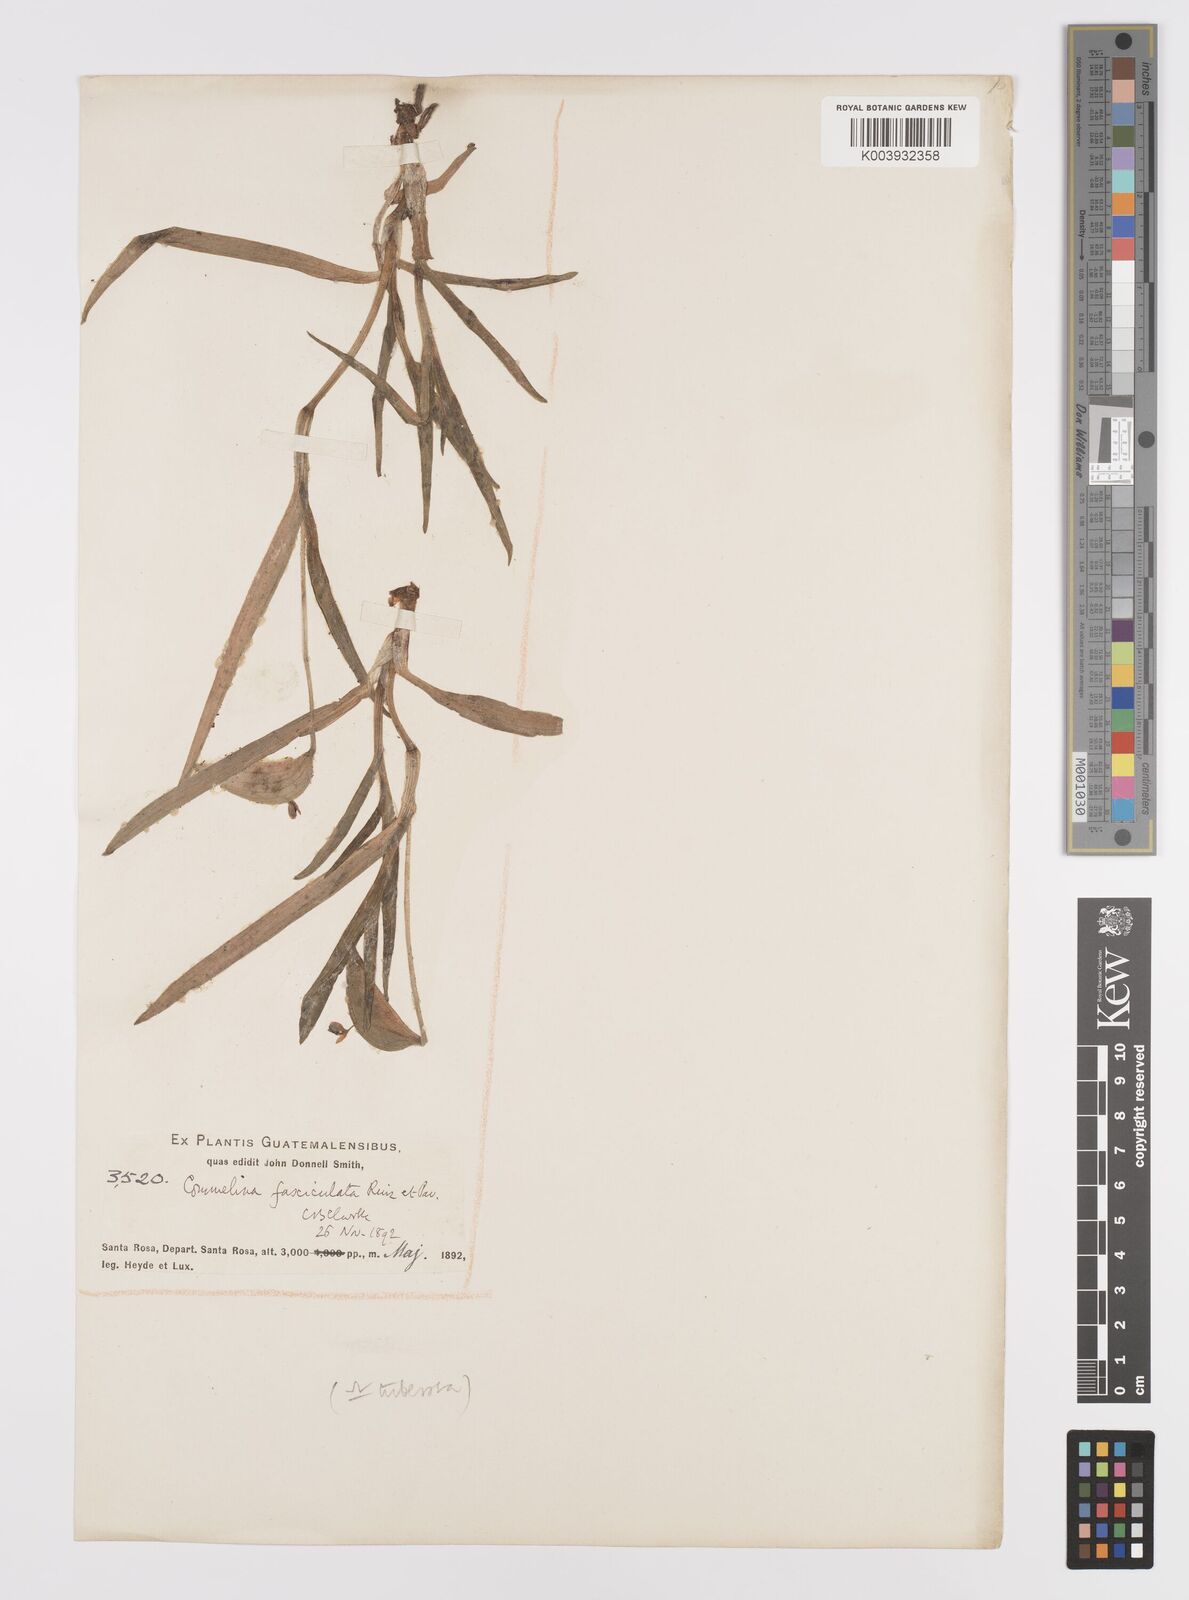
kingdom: Plantae
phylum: Tracheophyta
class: Liliopsida
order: Commelinales
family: Commelinaceae
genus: Commelina
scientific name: Commelina tuberosa
